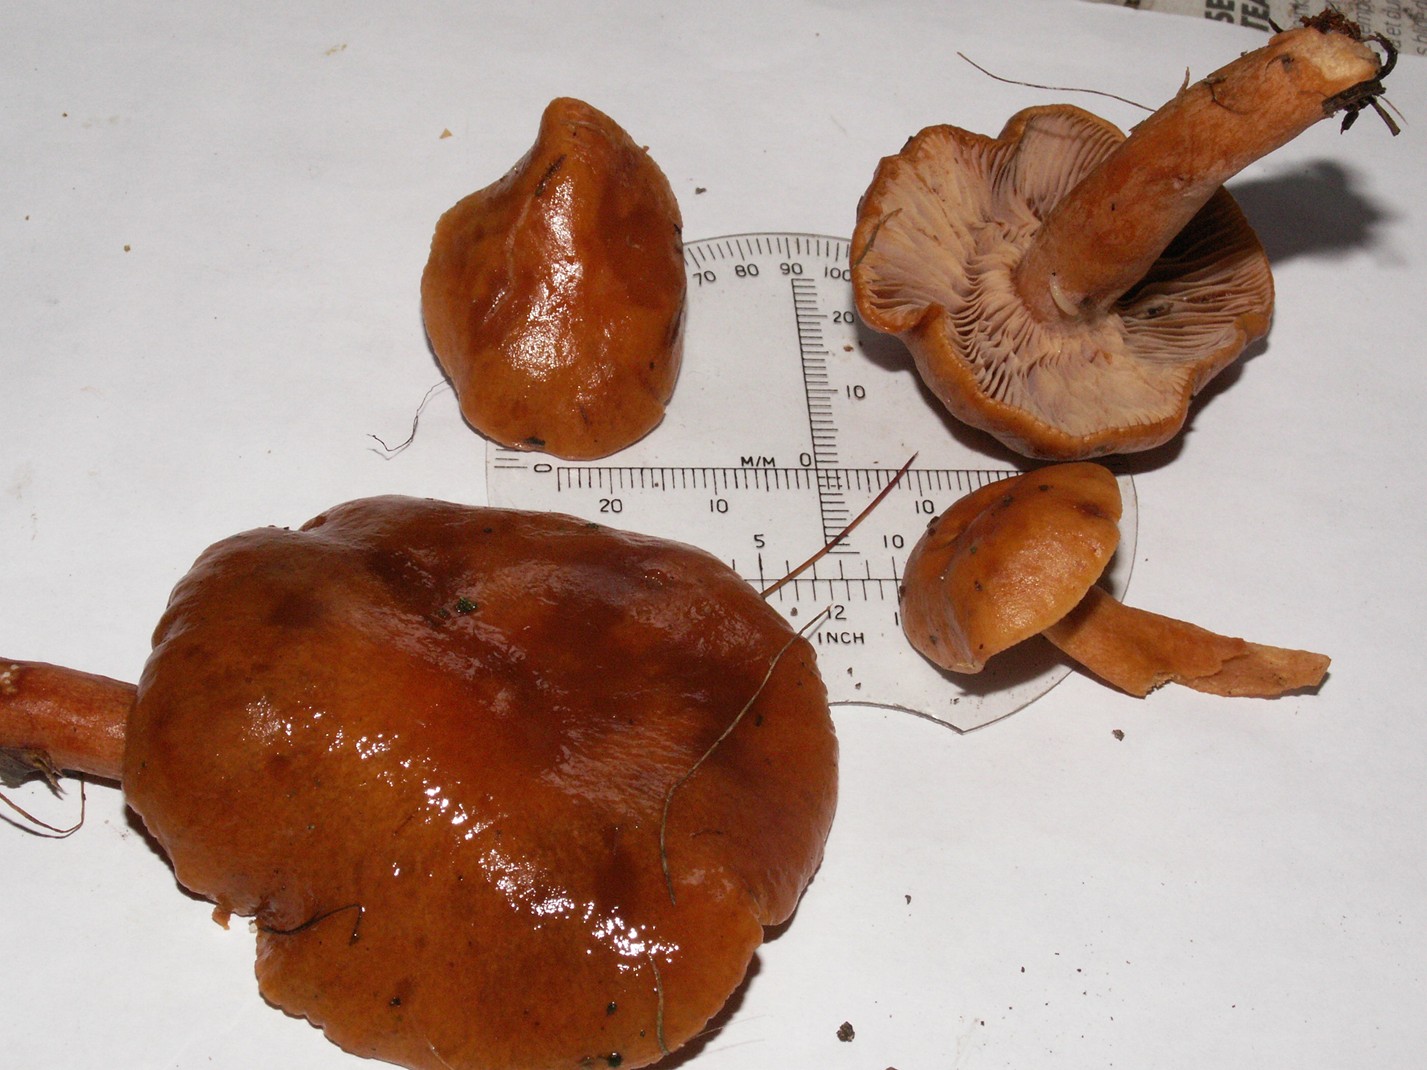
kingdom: Fungi
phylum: Basidiomycota
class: Agaricomycetes
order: Russulales
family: Russulaceae
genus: Lactarius
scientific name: Lactarius aurantiacus
